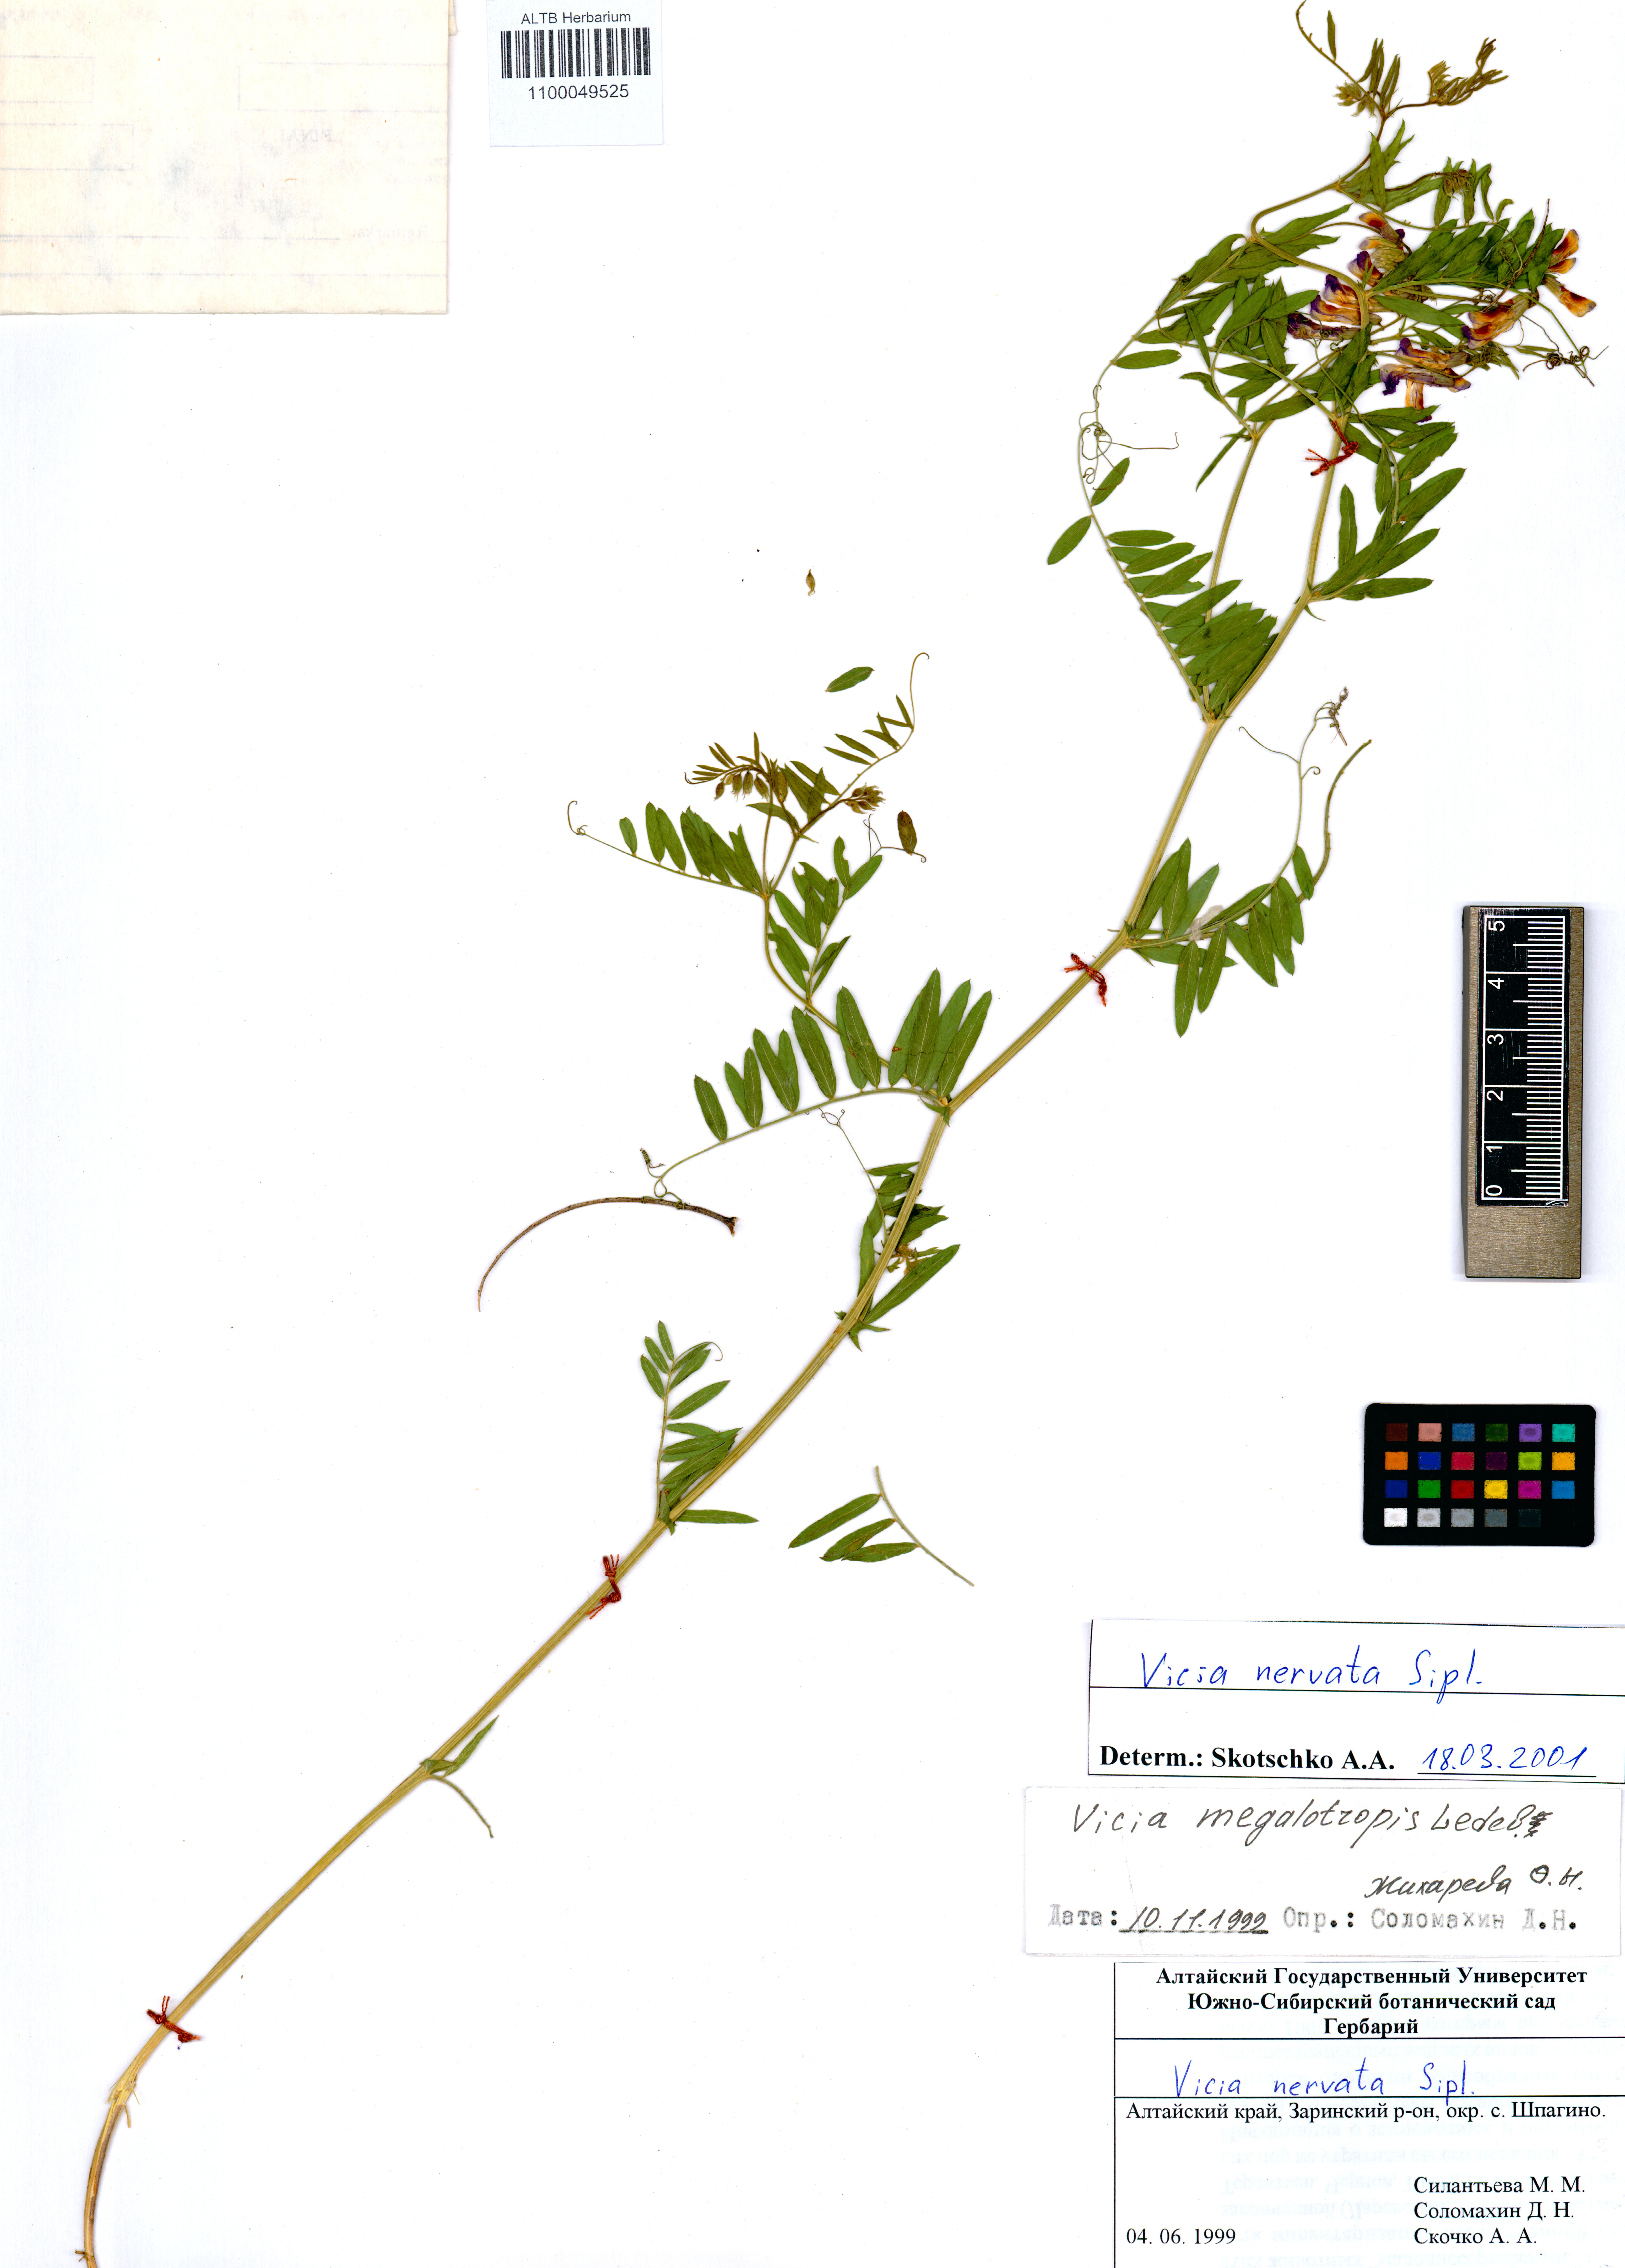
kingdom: Plantae
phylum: Tracheophyta
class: Magnoliopsida
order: Fabales
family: Fabaceae
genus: Vicia
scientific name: Vicia multicaulis
